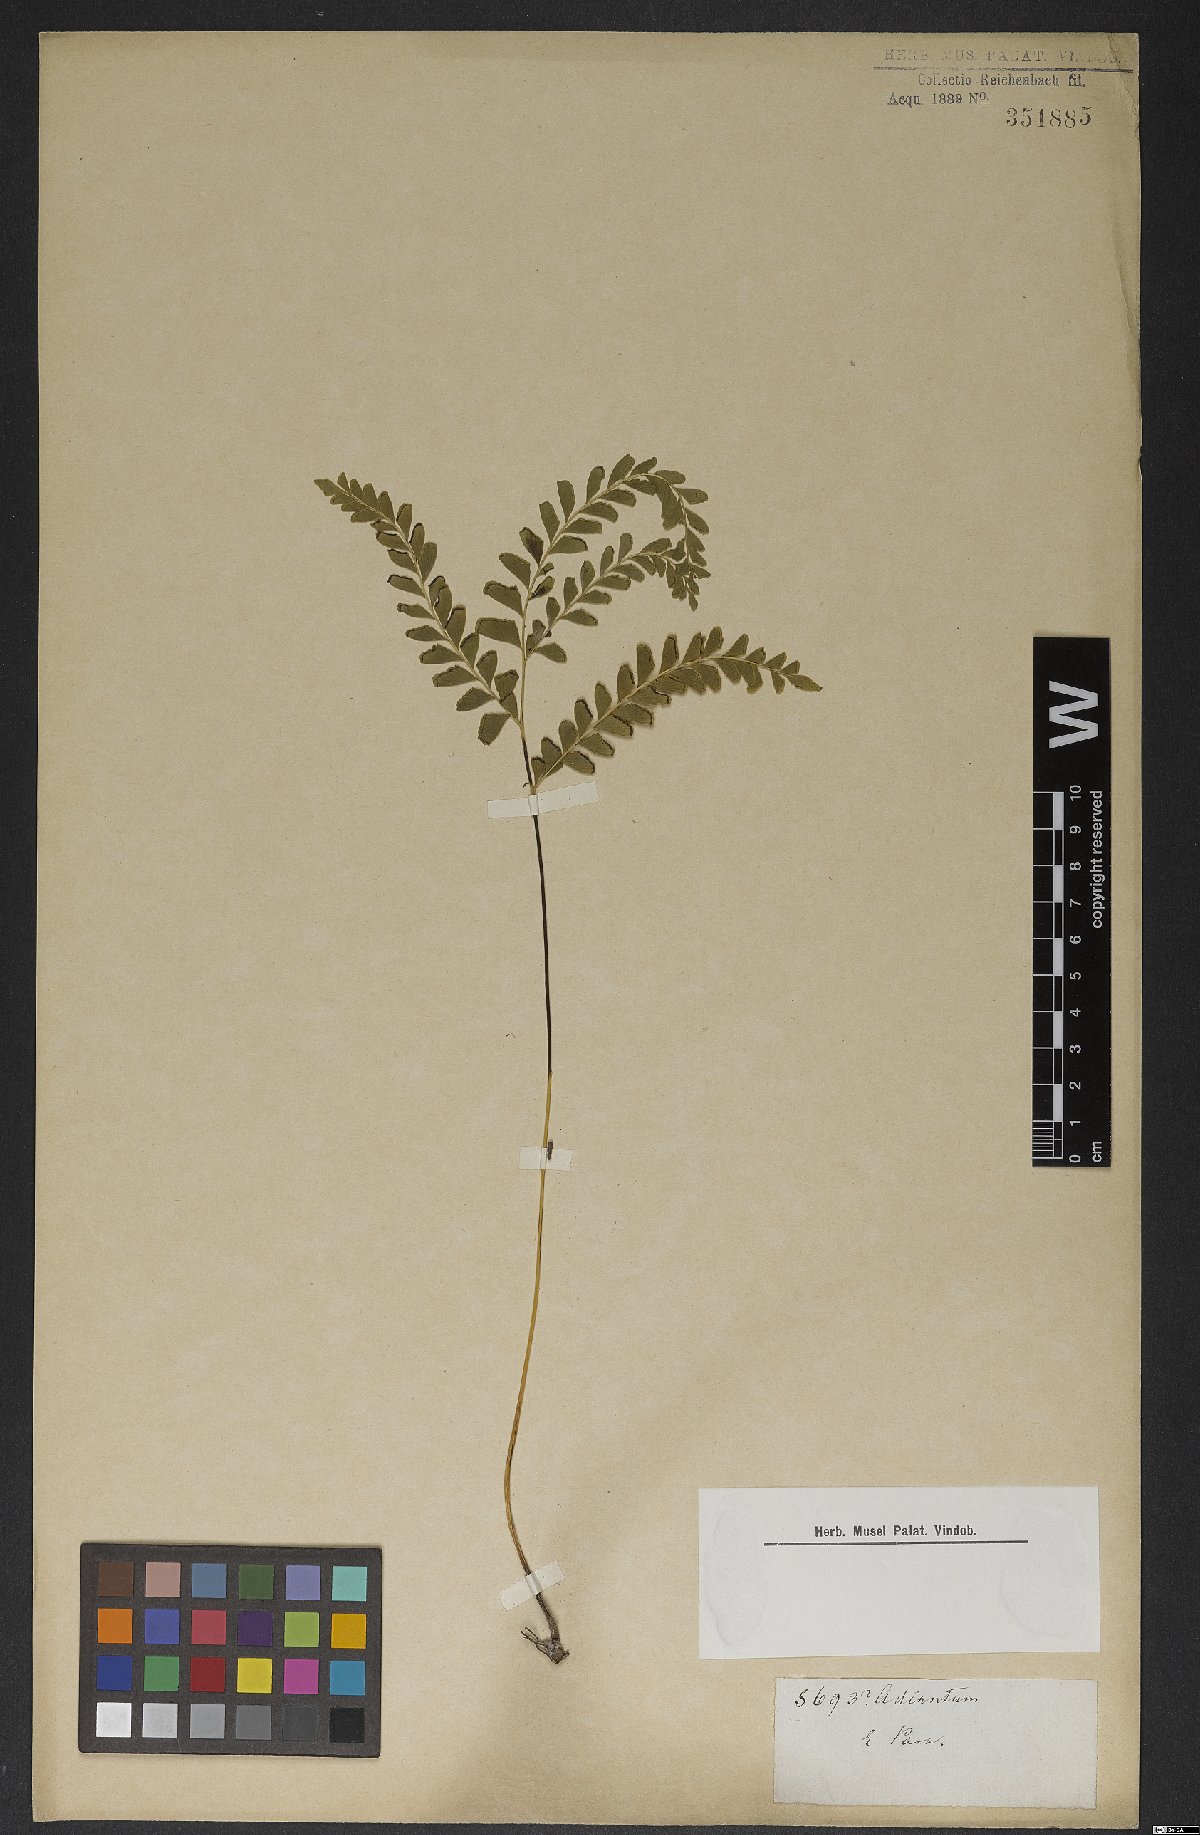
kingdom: Plantae
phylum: Tracheophyta
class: Polypodiopsida
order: Polypodiales
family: Lindsaeaceae
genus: Lindsaea
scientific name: Lindsaea lancea
